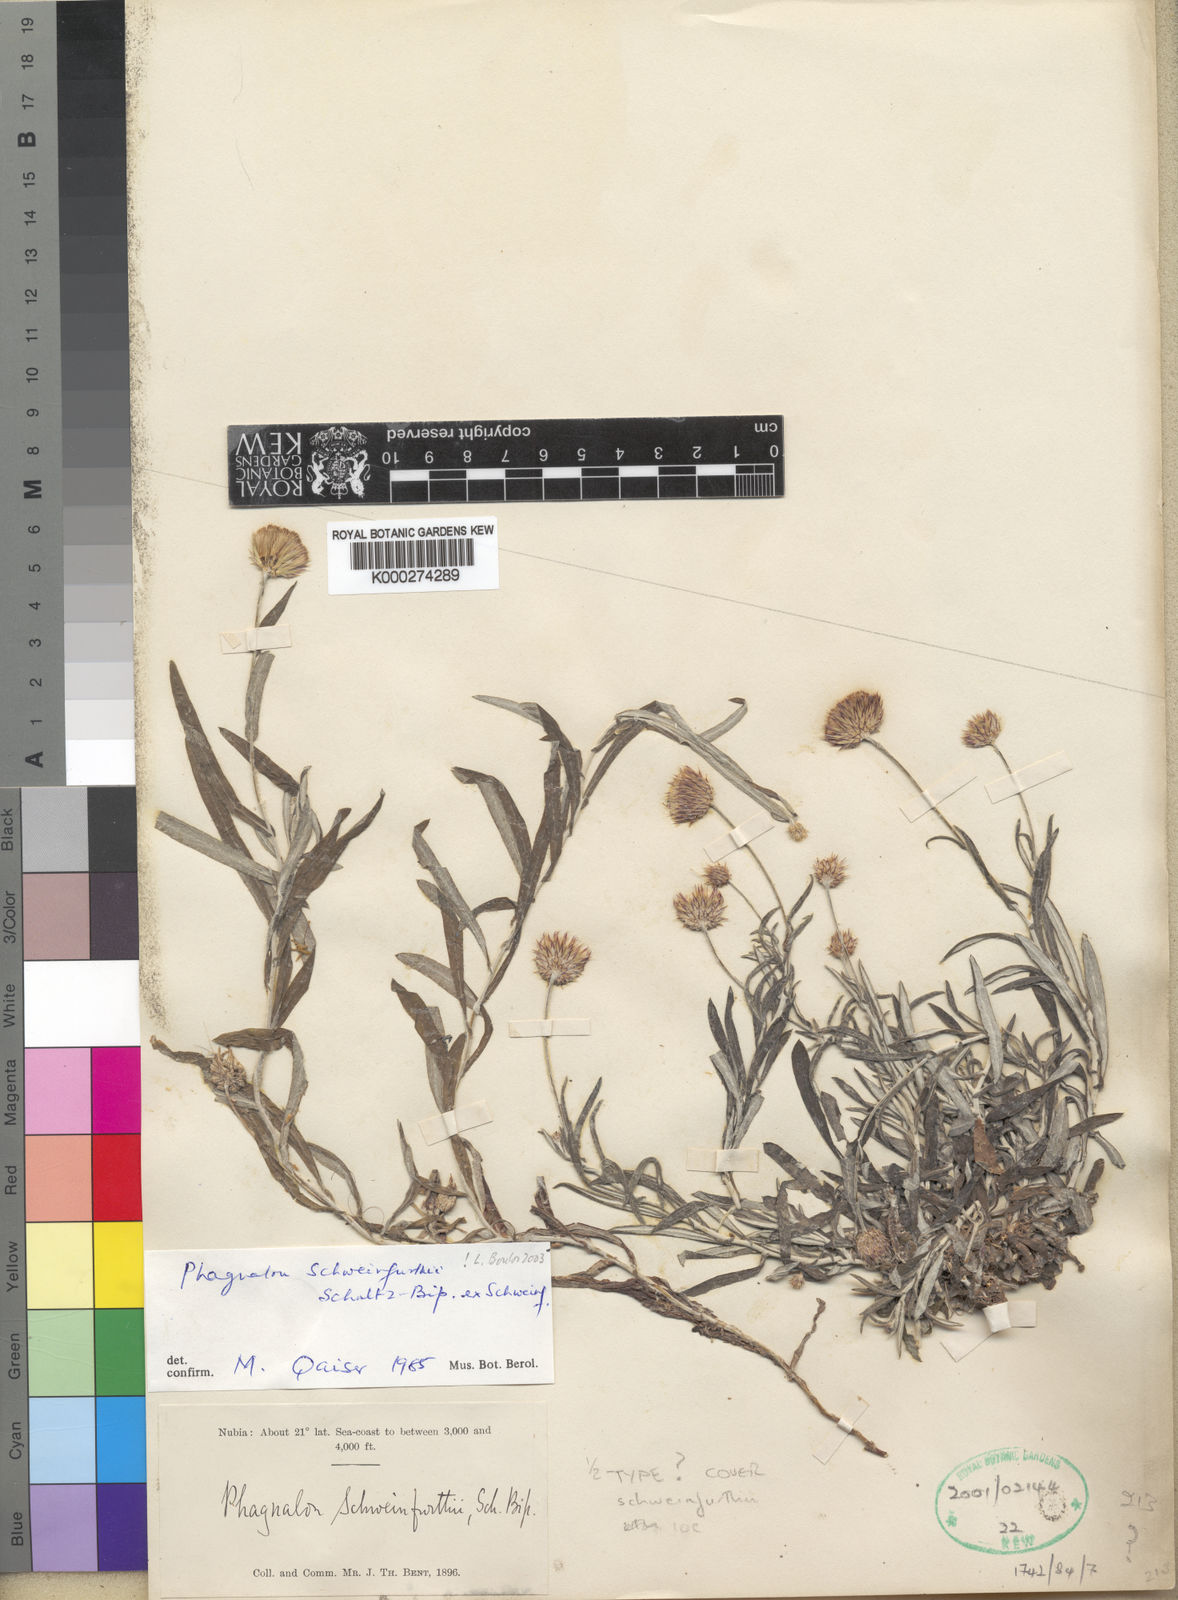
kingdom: Plantae
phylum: Tracheophyta
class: Magnoliopsida
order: Asterales
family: Asteraceae
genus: Phagnalon
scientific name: Phagnalon schweinfurthii
